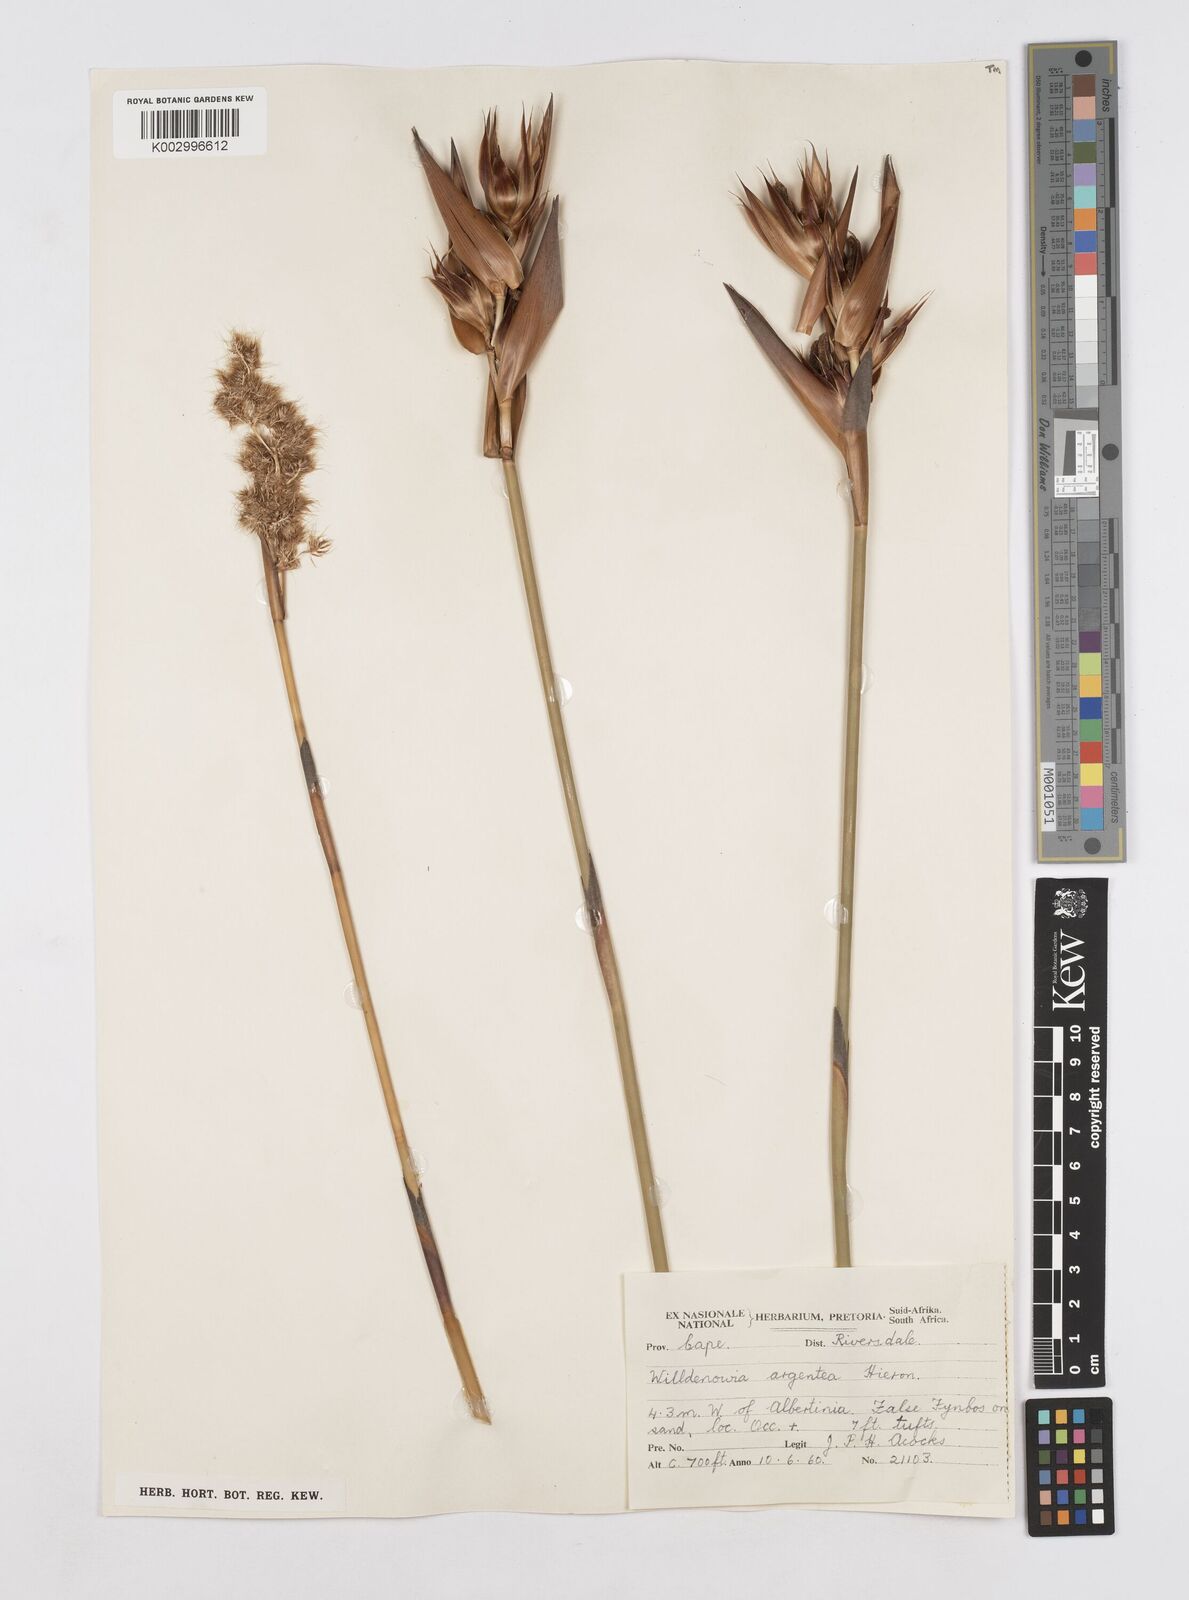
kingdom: Plantae
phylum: Tracheophyta
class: Liliopsida
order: Poales
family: Restionaceae
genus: Ceratocaryum
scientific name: Ceratocaryum argenteum
